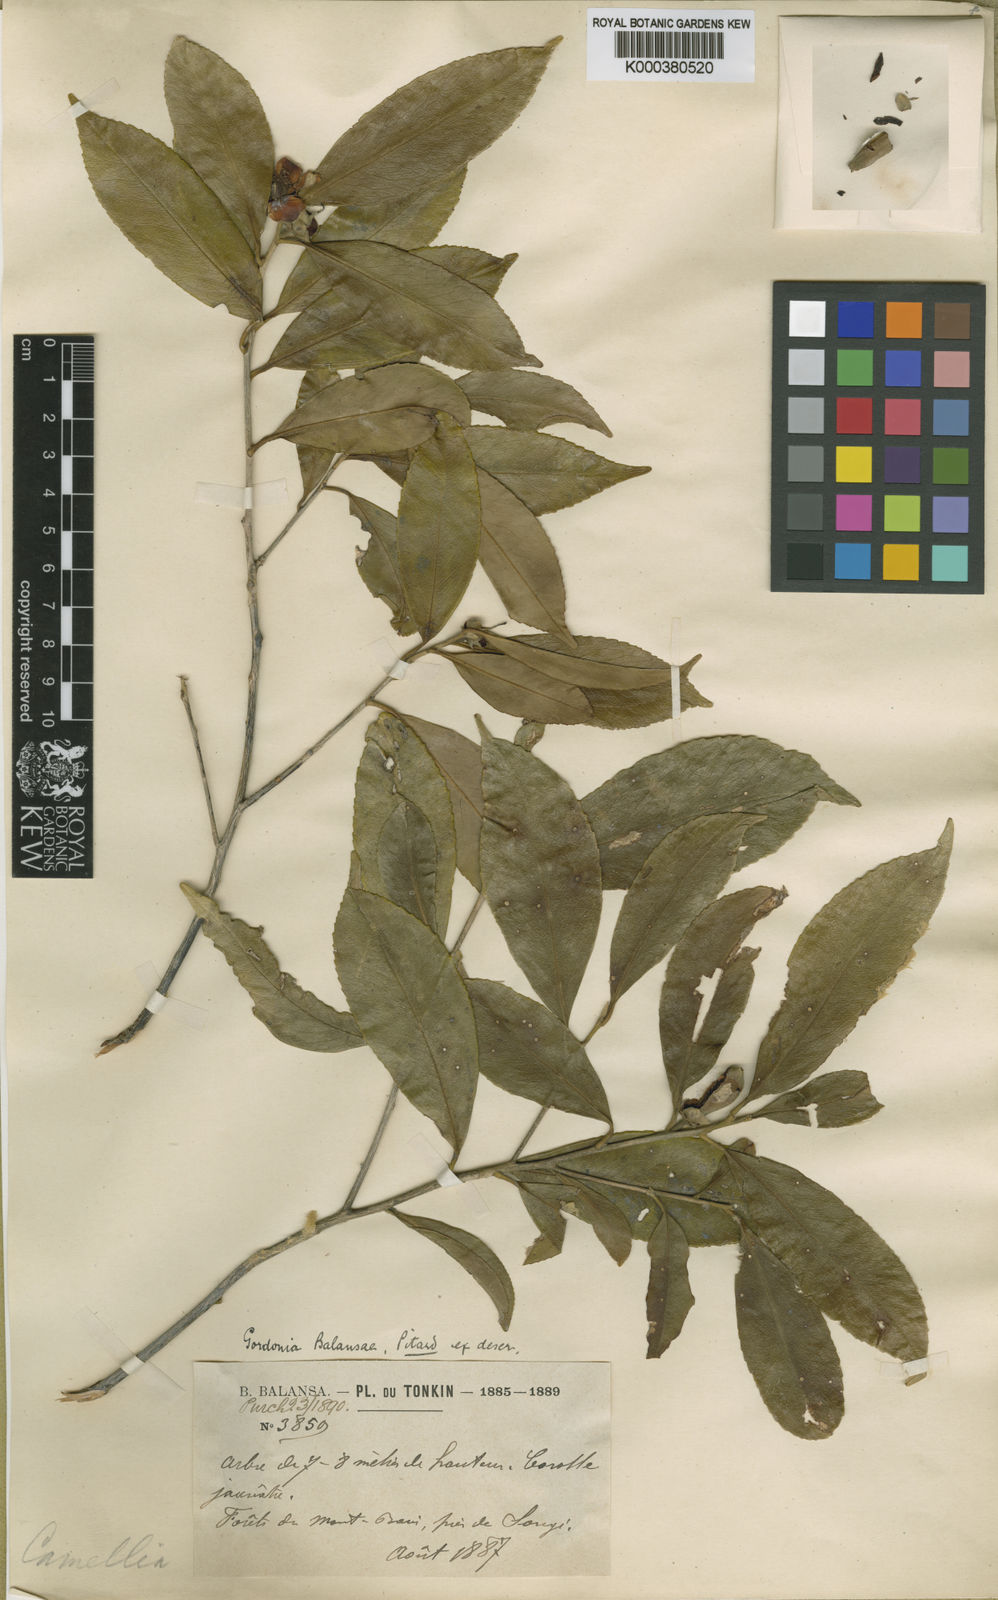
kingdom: Plantae
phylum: Tracheophyta
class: Magnoliopsida
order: Ericales
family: Theaceae
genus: Polyspora
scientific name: Polyspora balansae
